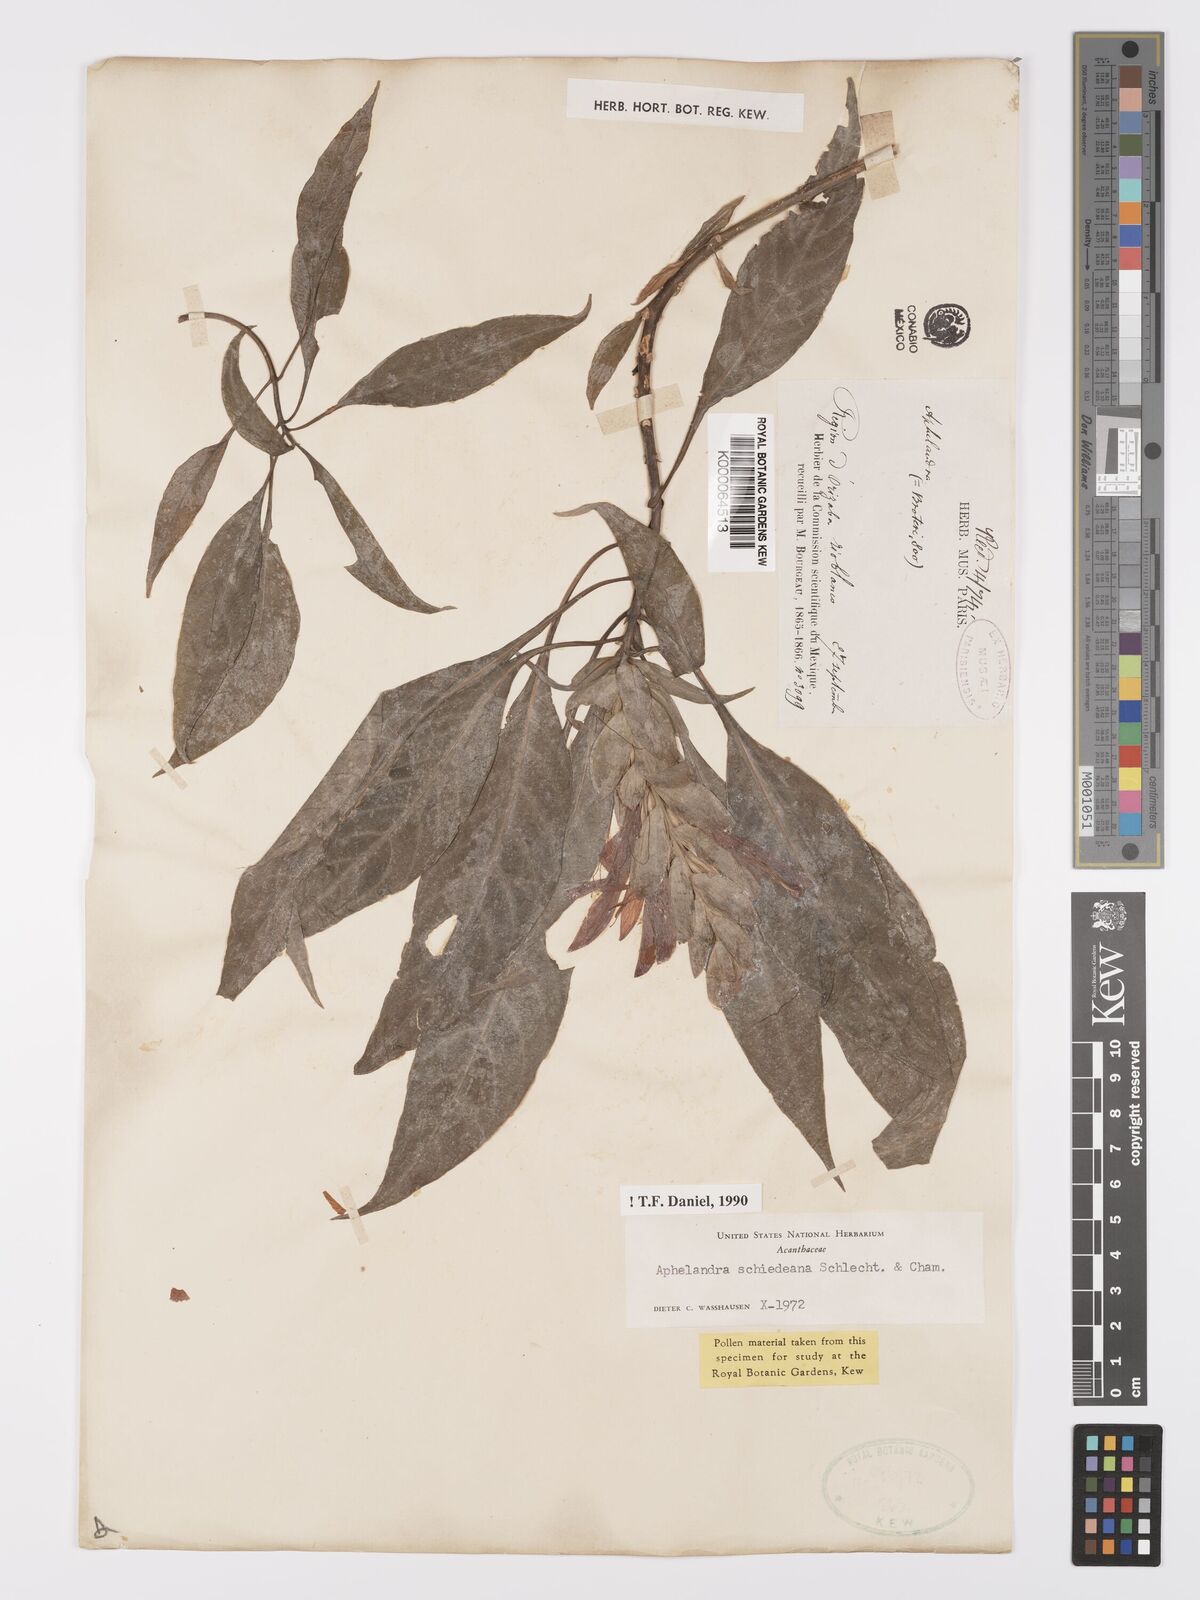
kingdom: Plantae
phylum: Tracheophyta
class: Magnoliopsida
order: Lamiales
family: Acanthaceae
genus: Aphelandra
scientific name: Aphelandra schiedeana
